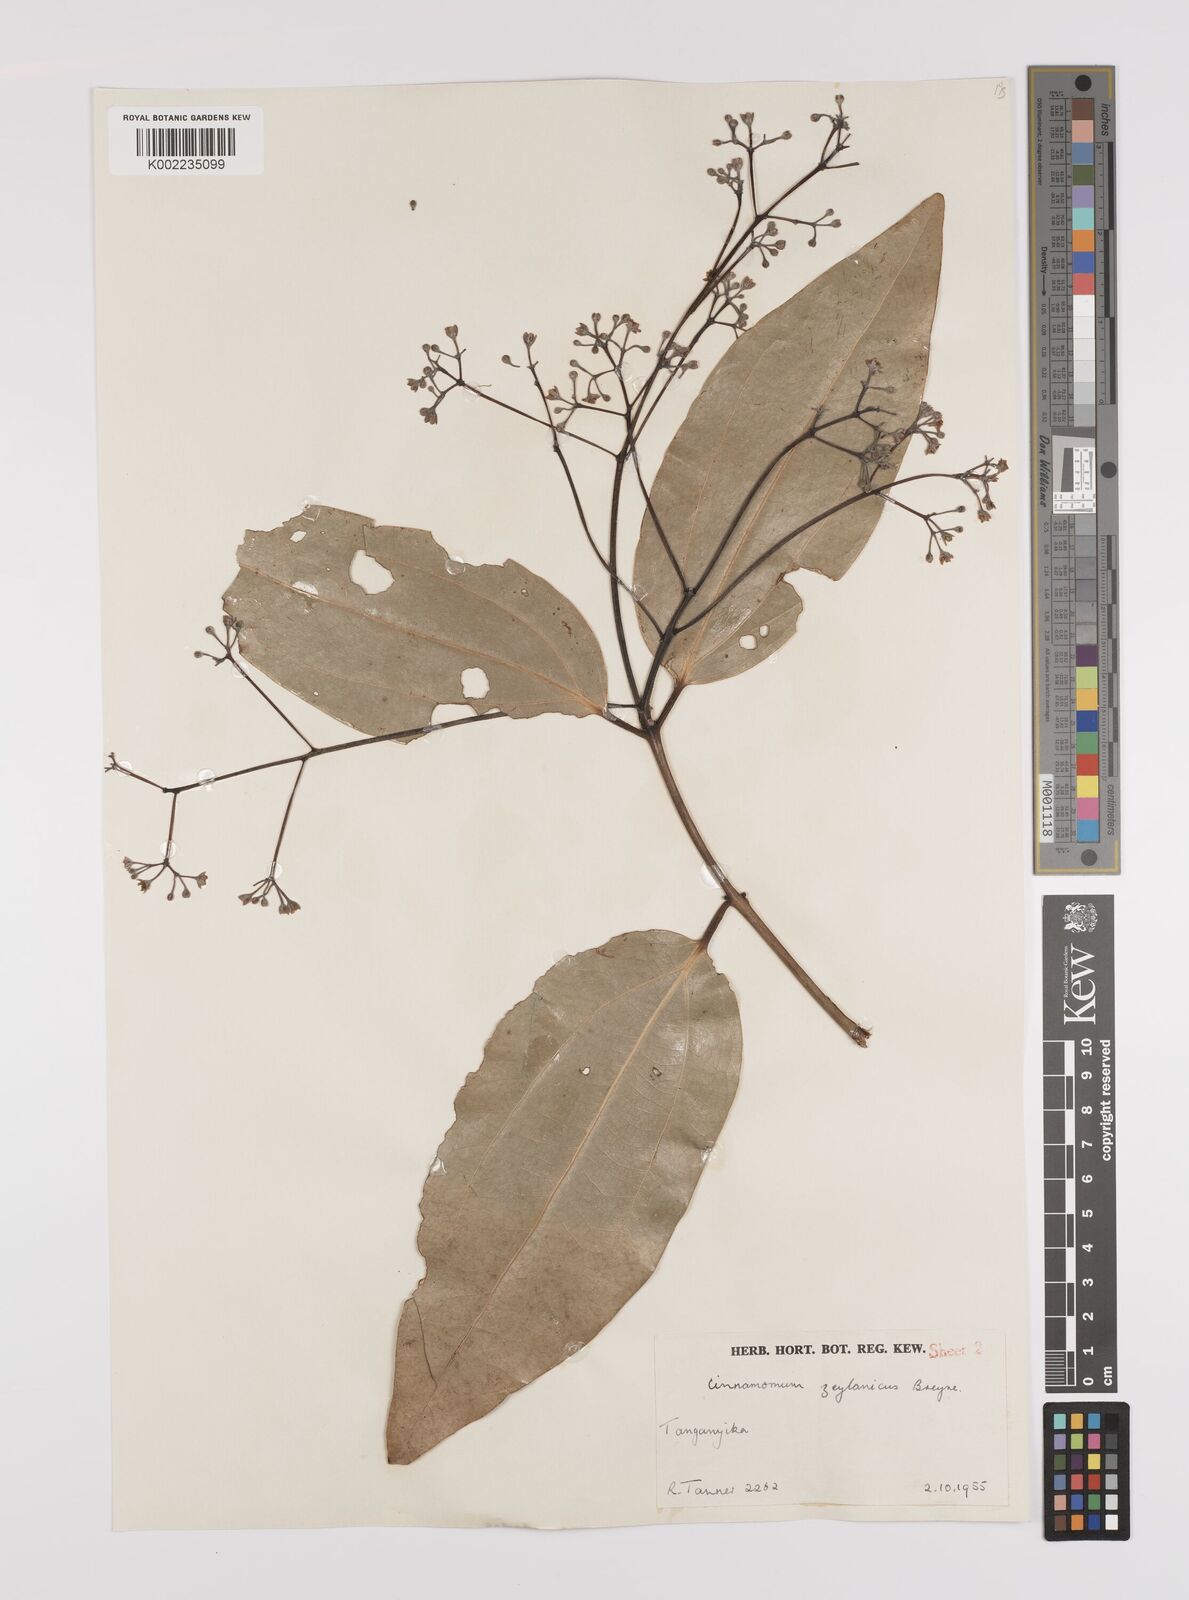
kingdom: Plantae
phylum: Tracheophyta
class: Magnoliopsida
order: Laurales
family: Lauraceae
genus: Cinnamomum
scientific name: Cinnamomum verum
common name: Cinnamon
